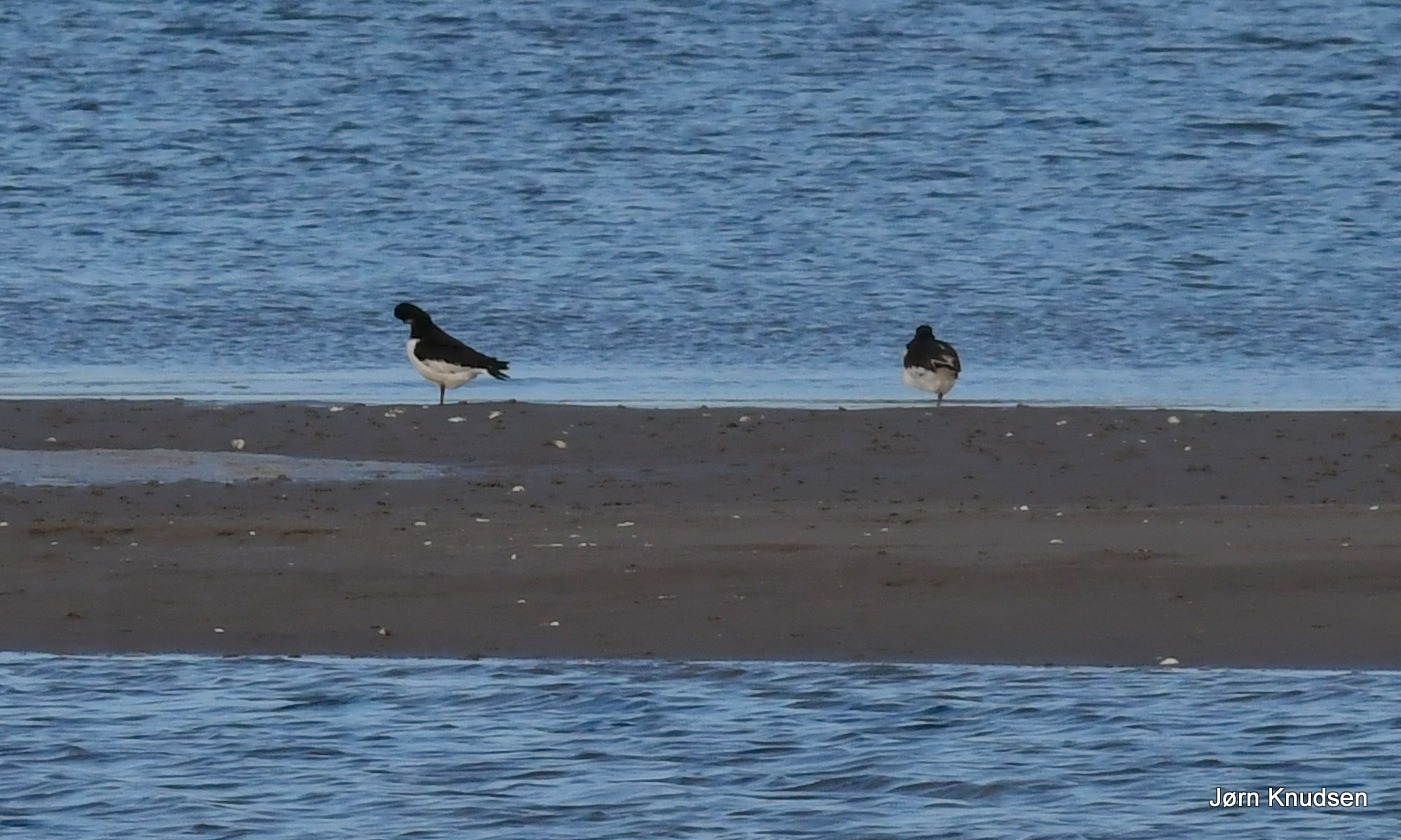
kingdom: Animalia
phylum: Chordata
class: Aves
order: Charadriiformes
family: Haematopodidae
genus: Haematopus
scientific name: Haematopus ostralegus
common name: Strandskade
